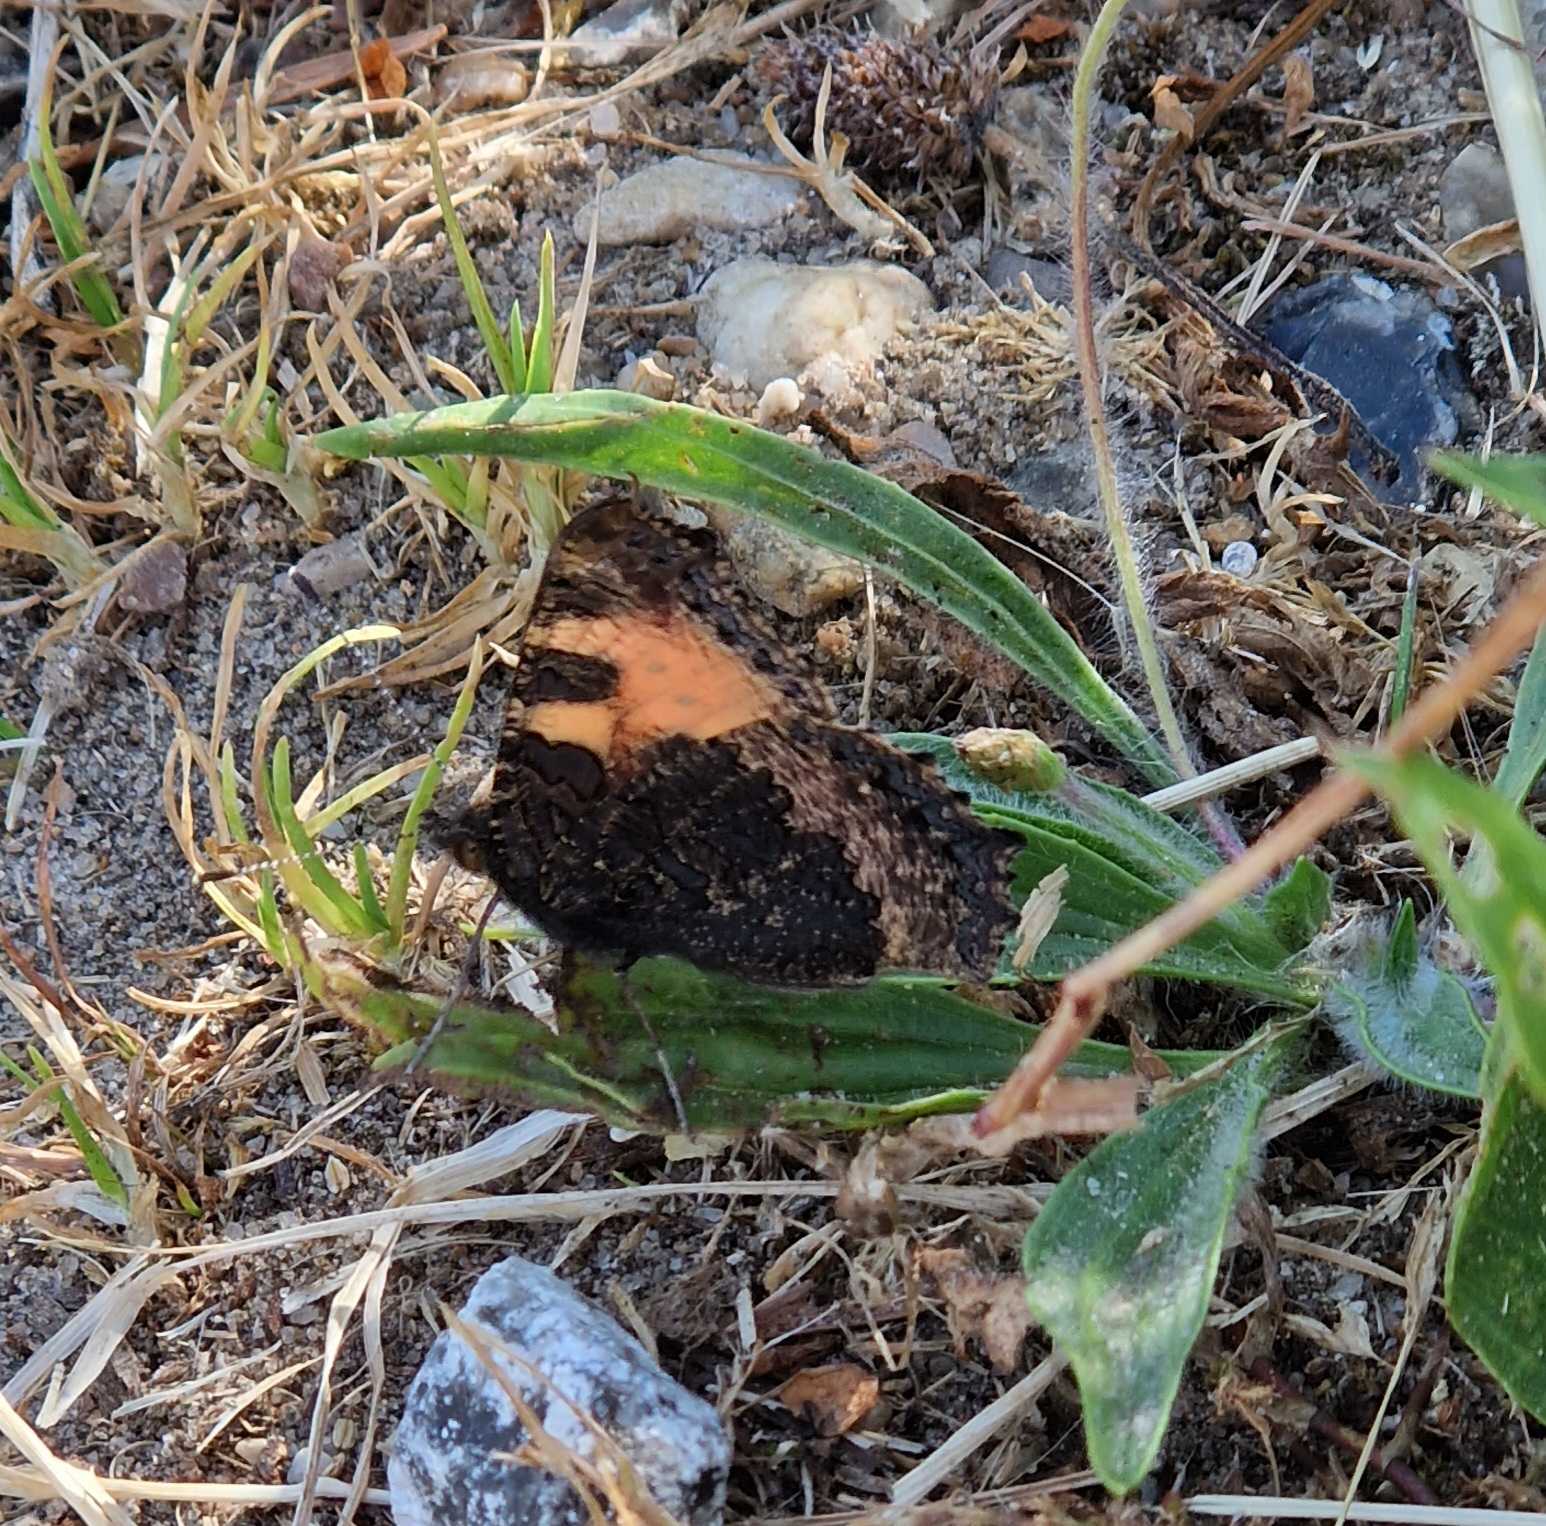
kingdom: Animalia
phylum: Arthropoda
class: Insecta
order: Lepidoptera
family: Nymphalidae
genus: Aglais
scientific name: Aglais urticae
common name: Nældens takvinge
